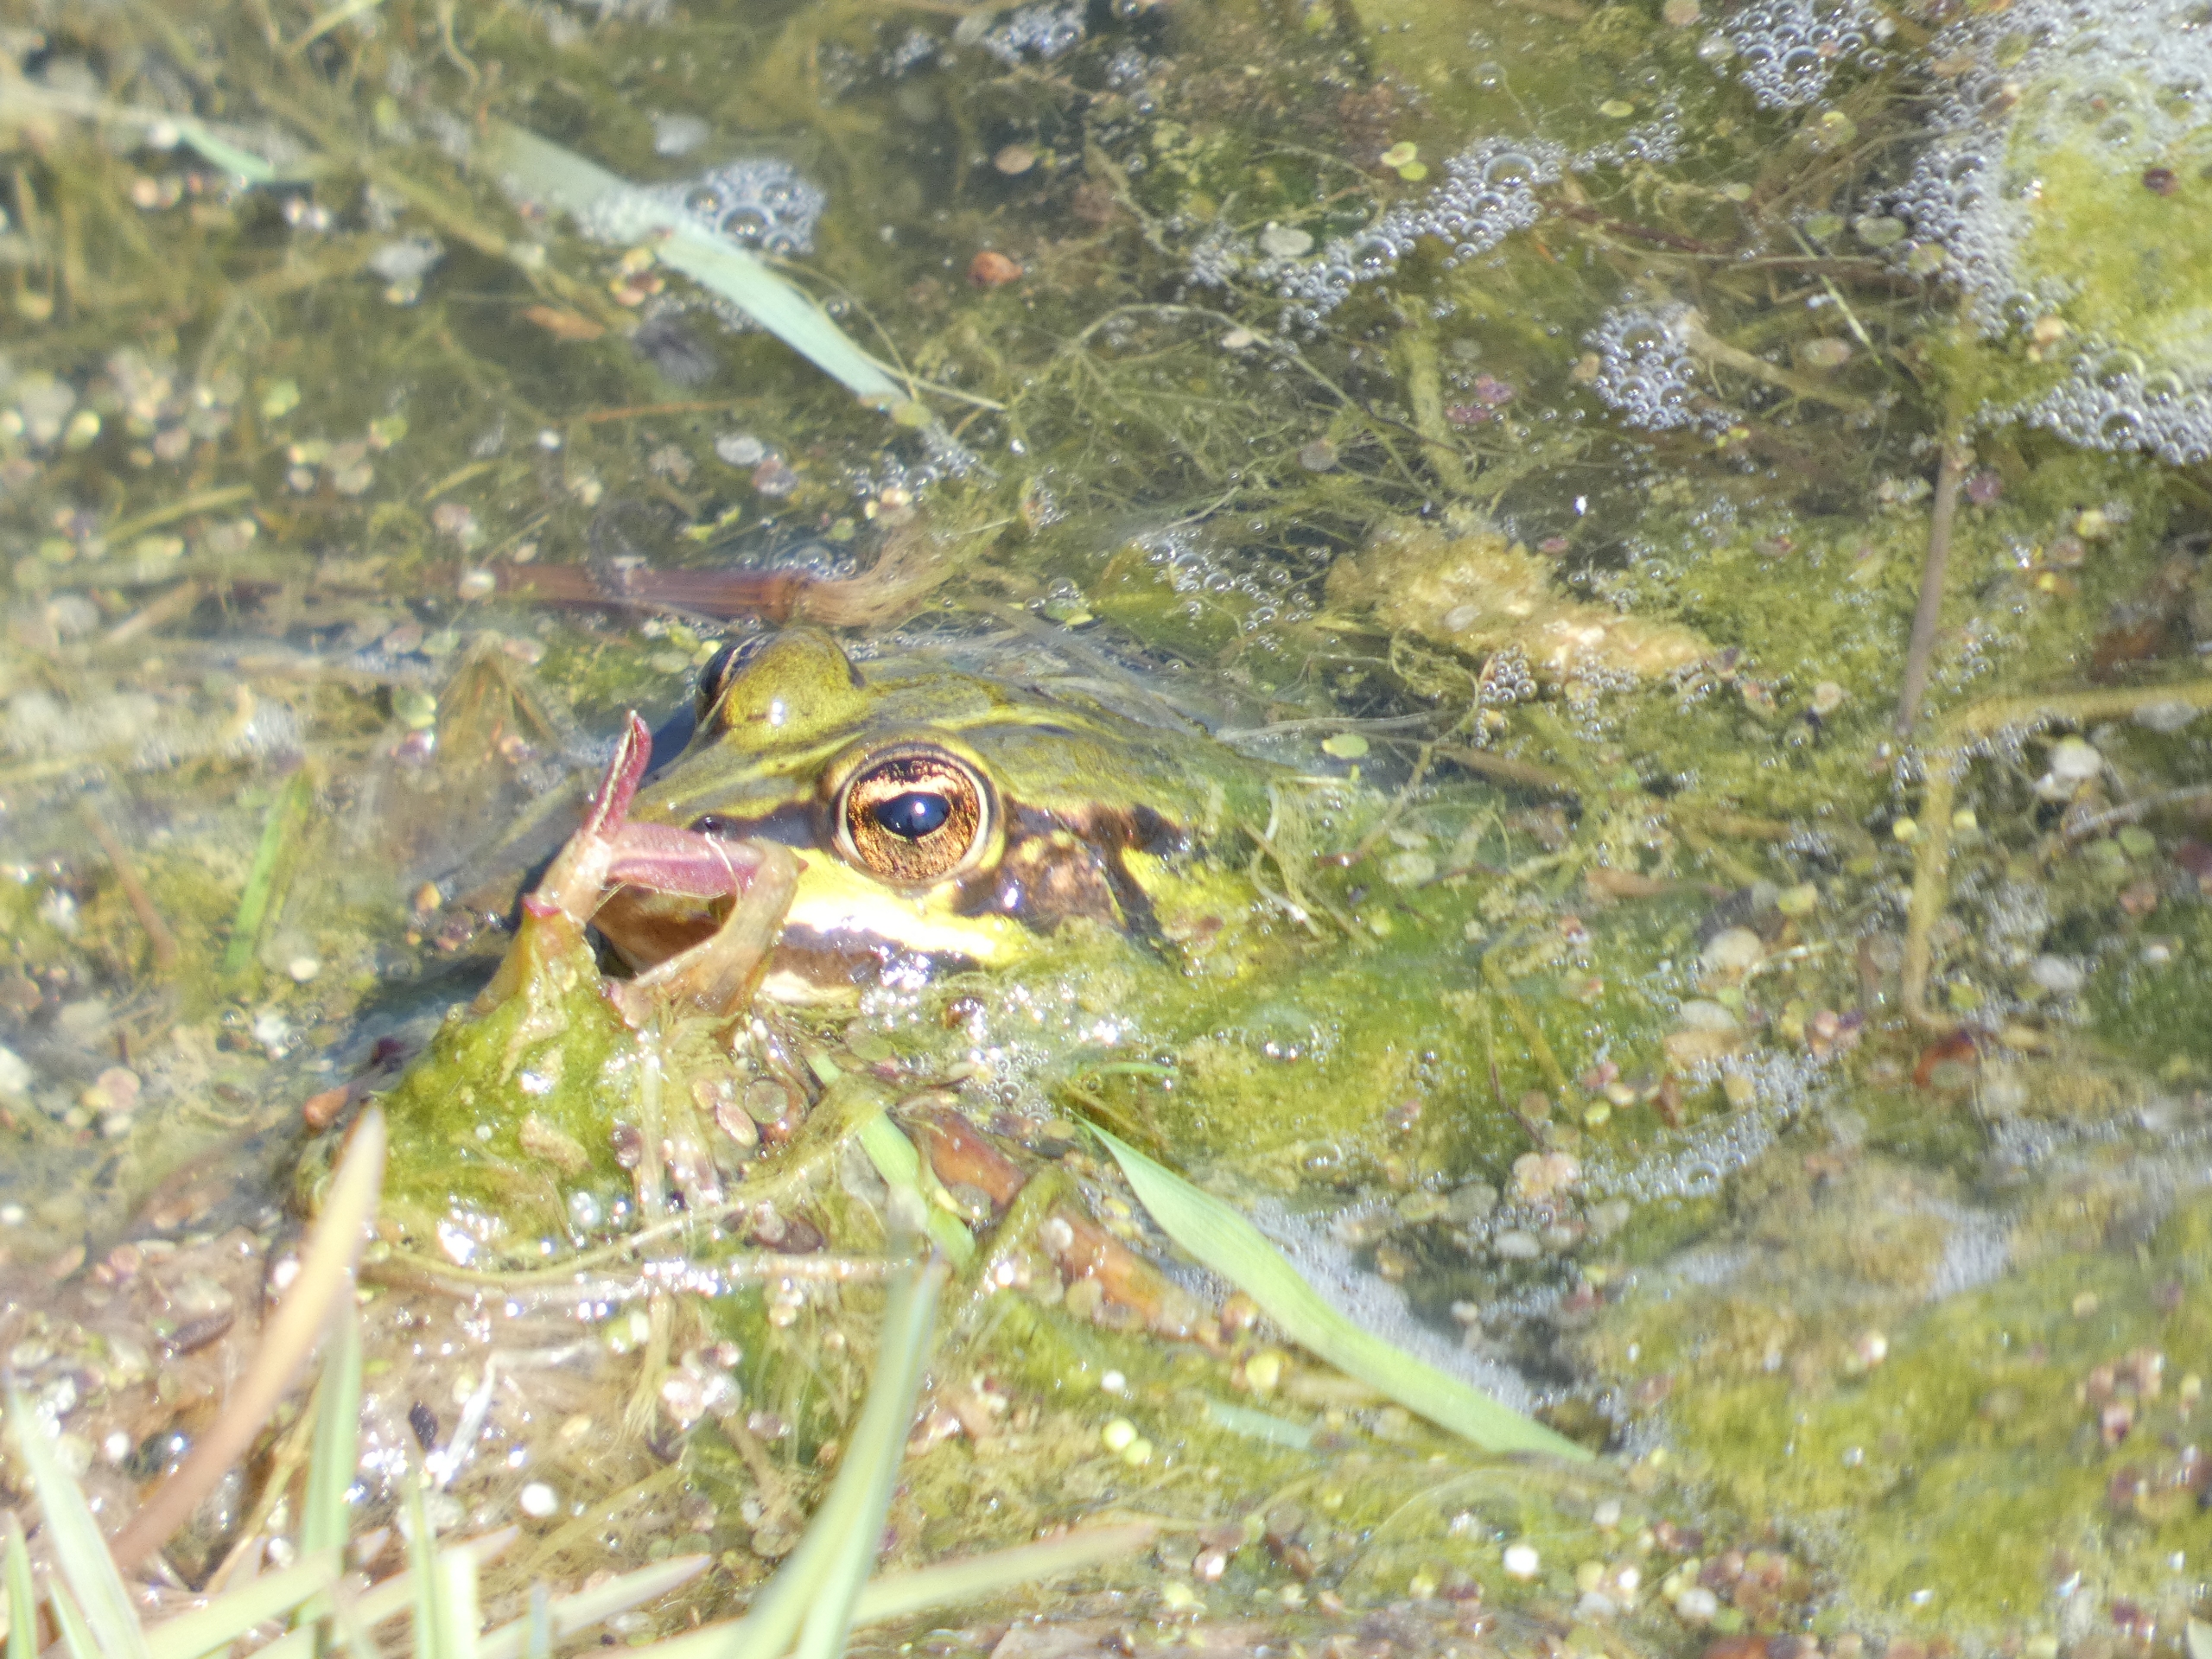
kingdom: Animalia
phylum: Chordata
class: Amphibia
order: Anura
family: Ranidae
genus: Pelophylax
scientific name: Pelophylax lessonae
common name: Grøn frø
